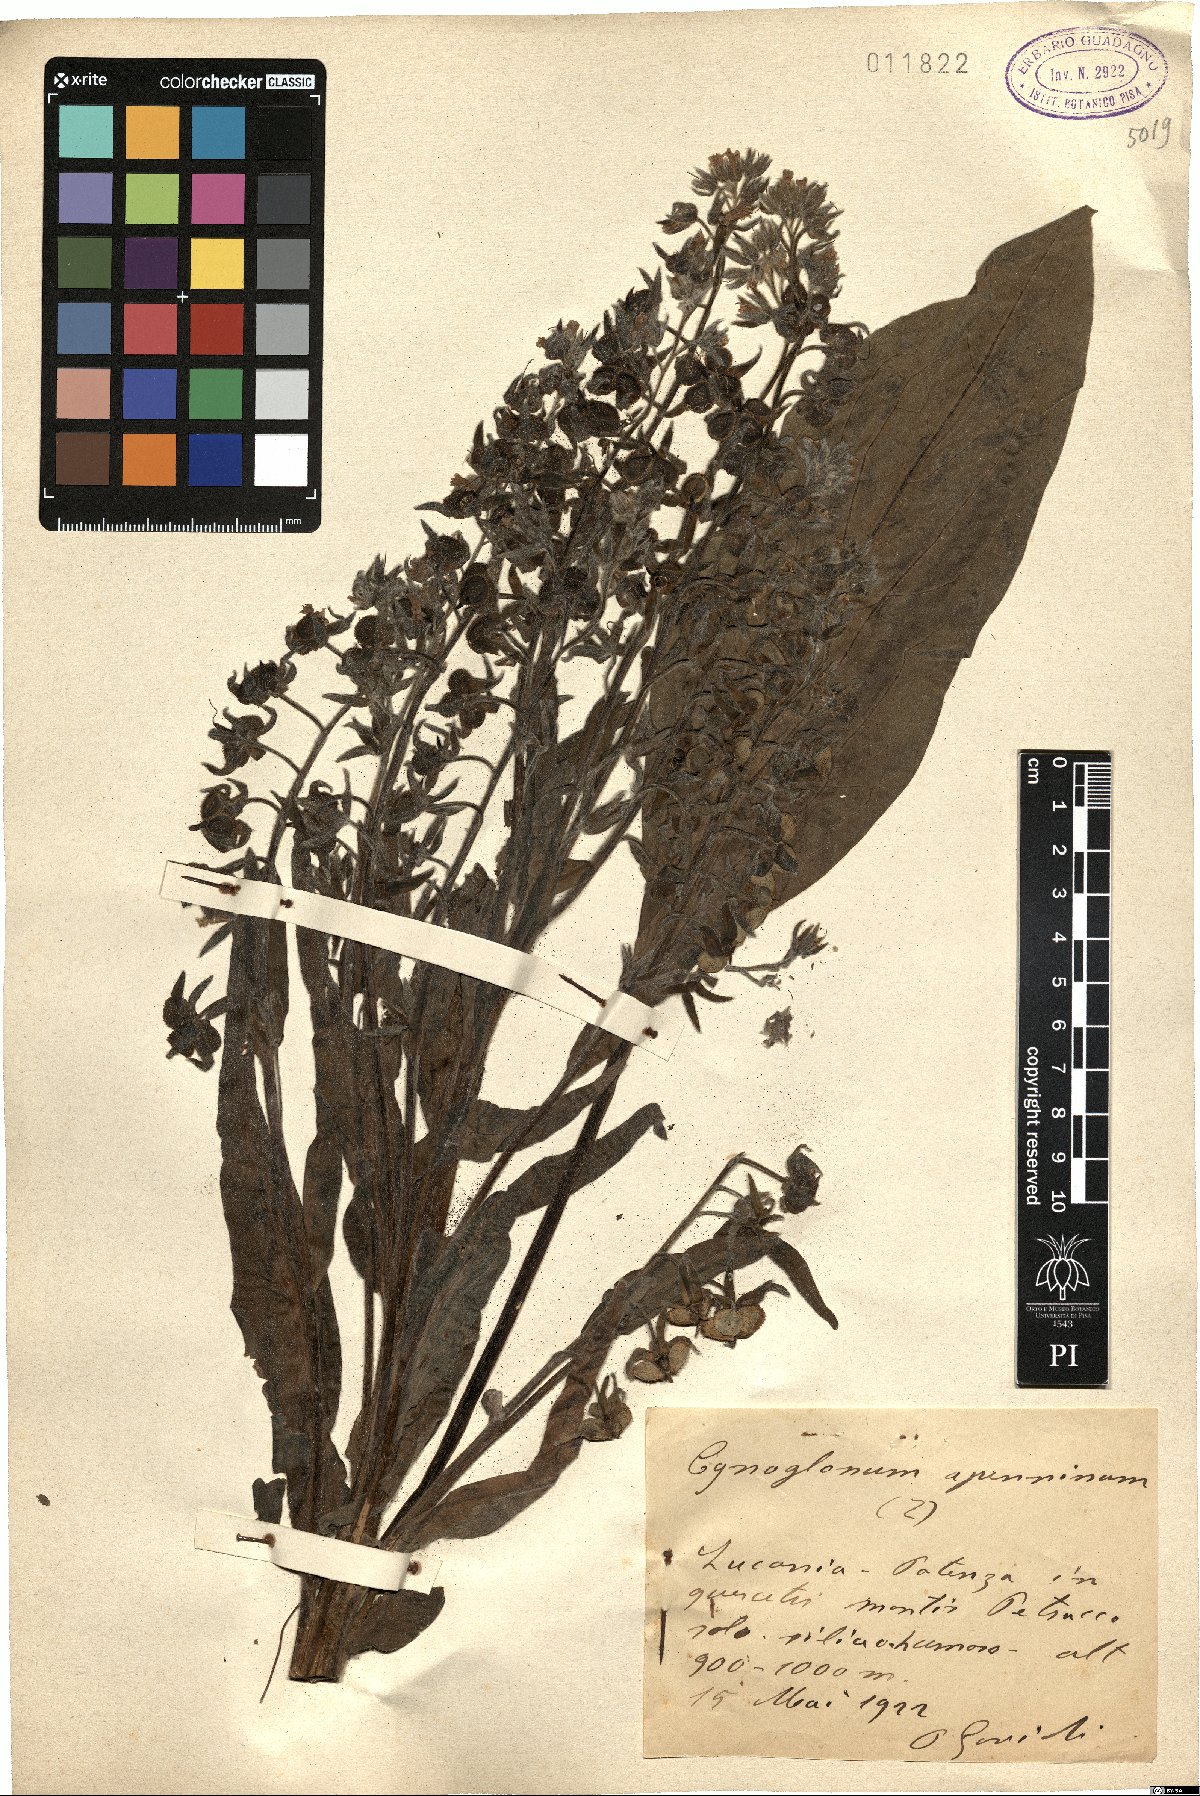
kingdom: Plantae
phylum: Tracheophyta
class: Magnoliopsida
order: Boraginales
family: Boraginaceae
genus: Solenanthus
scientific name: Solenanthus apenninus
